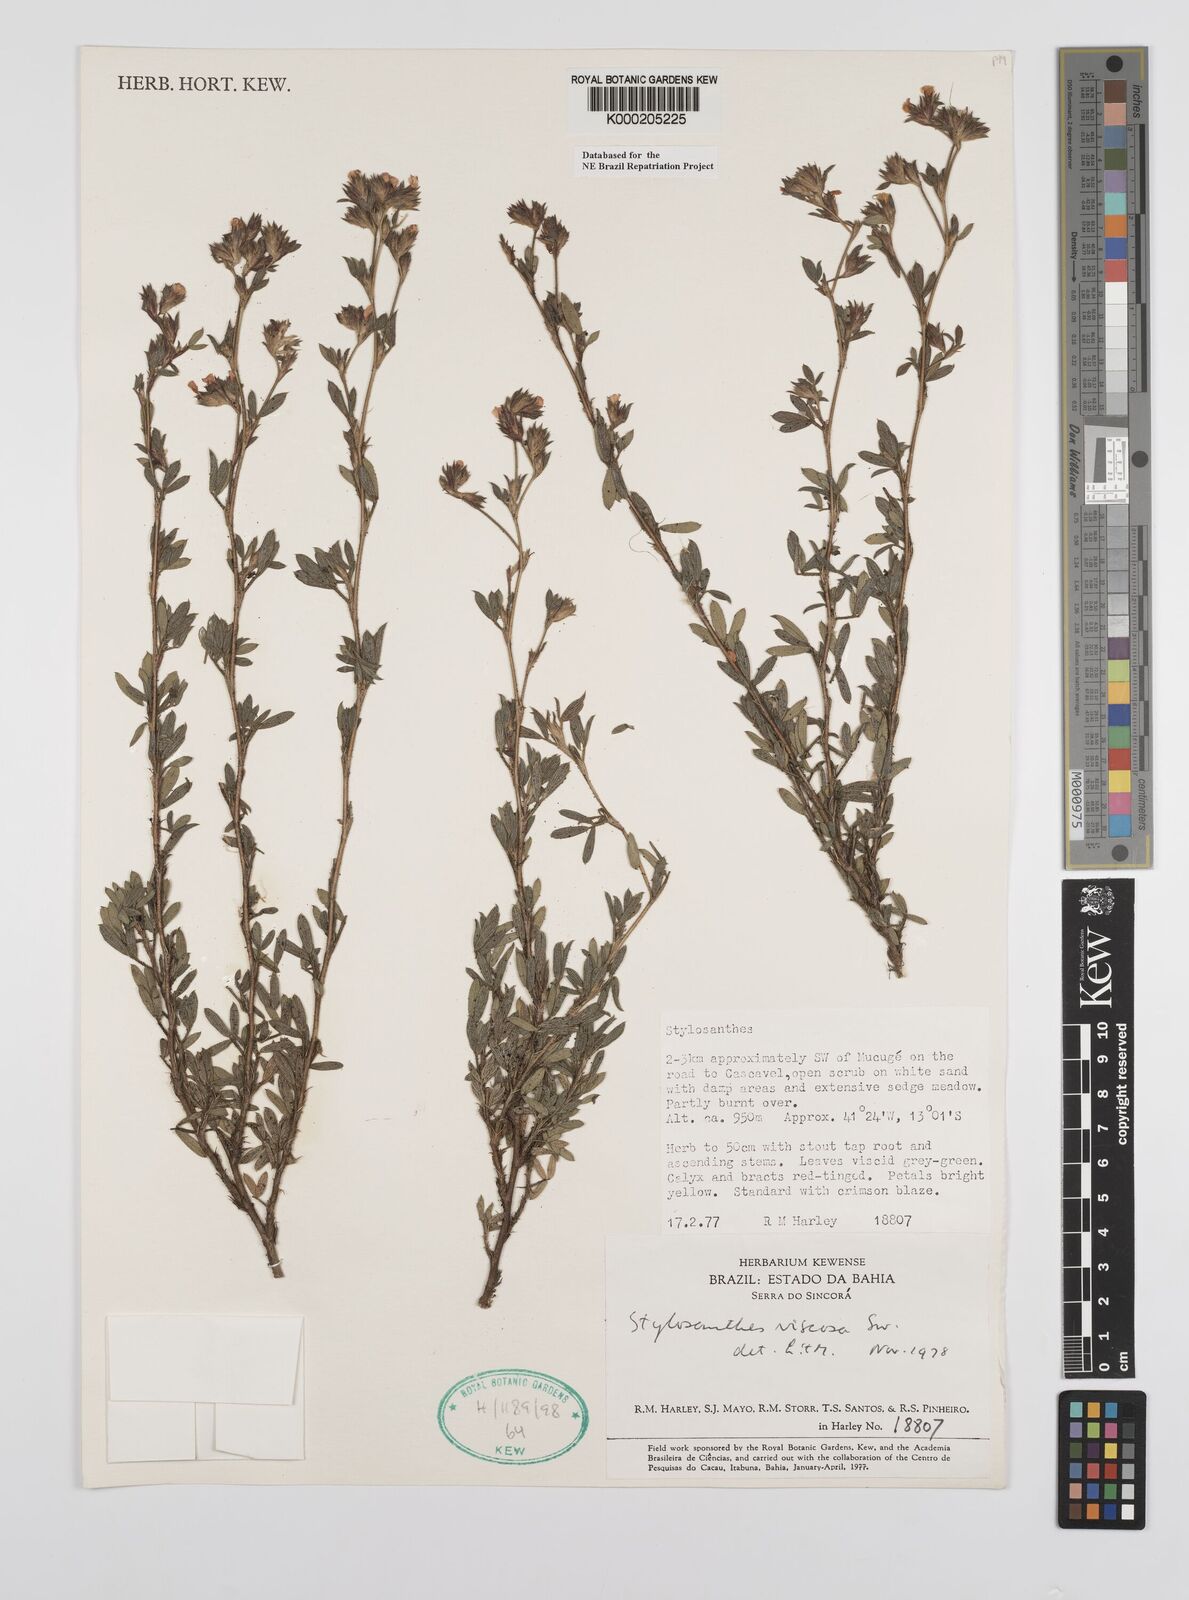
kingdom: Plantae
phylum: Tracheophyta
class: Magnoliopsida
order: Fabales
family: Fabaceae
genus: Stylosanthes
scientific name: Stylosanthes viscosa
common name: Viscid pencil-flower
